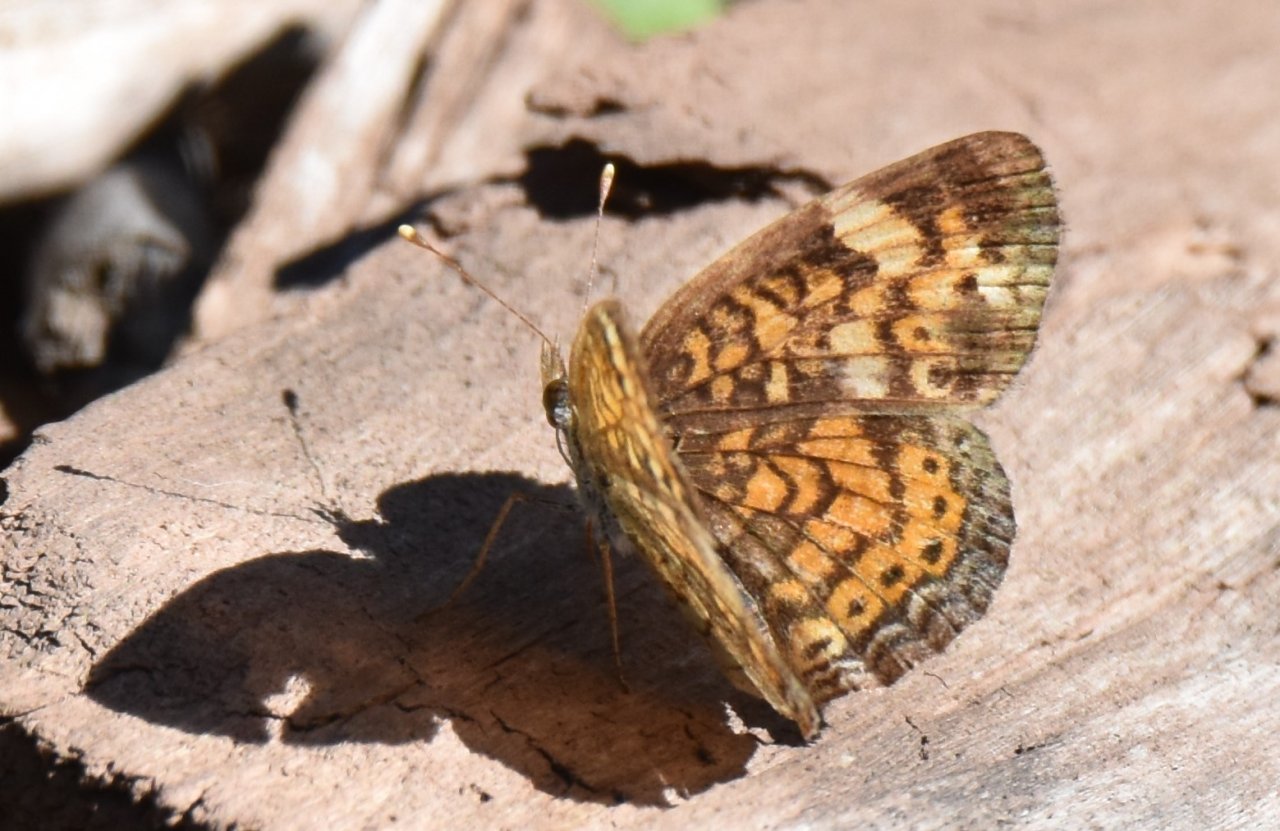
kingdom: Animalia
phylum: Arthropoda
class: Insecta
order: Lepidoptera
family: Nymphalidae
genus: Phyciodes
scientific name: Phyciodes tharos
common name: Pearl Crescent
